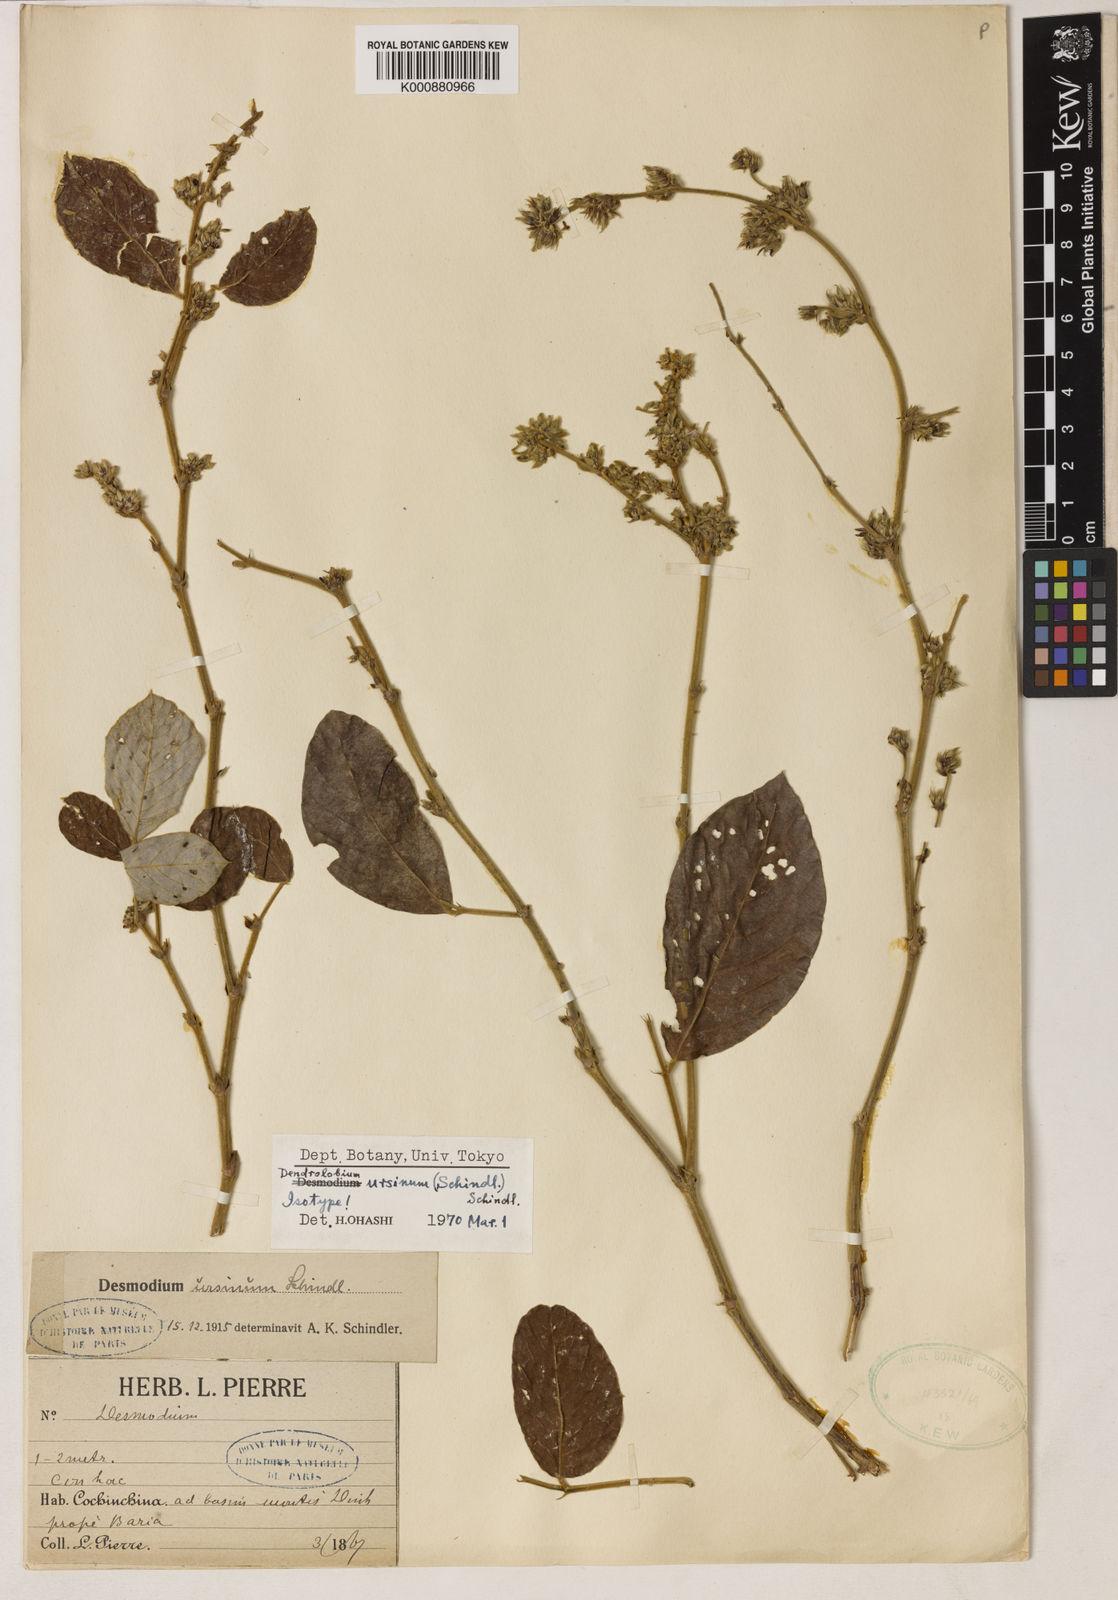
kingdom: Plantae
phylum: Tracheophyta
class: Magnoliopsida
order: Fabales
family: Fabaceae
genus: Dendrolobium
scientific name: Dendrolobium ursinum
